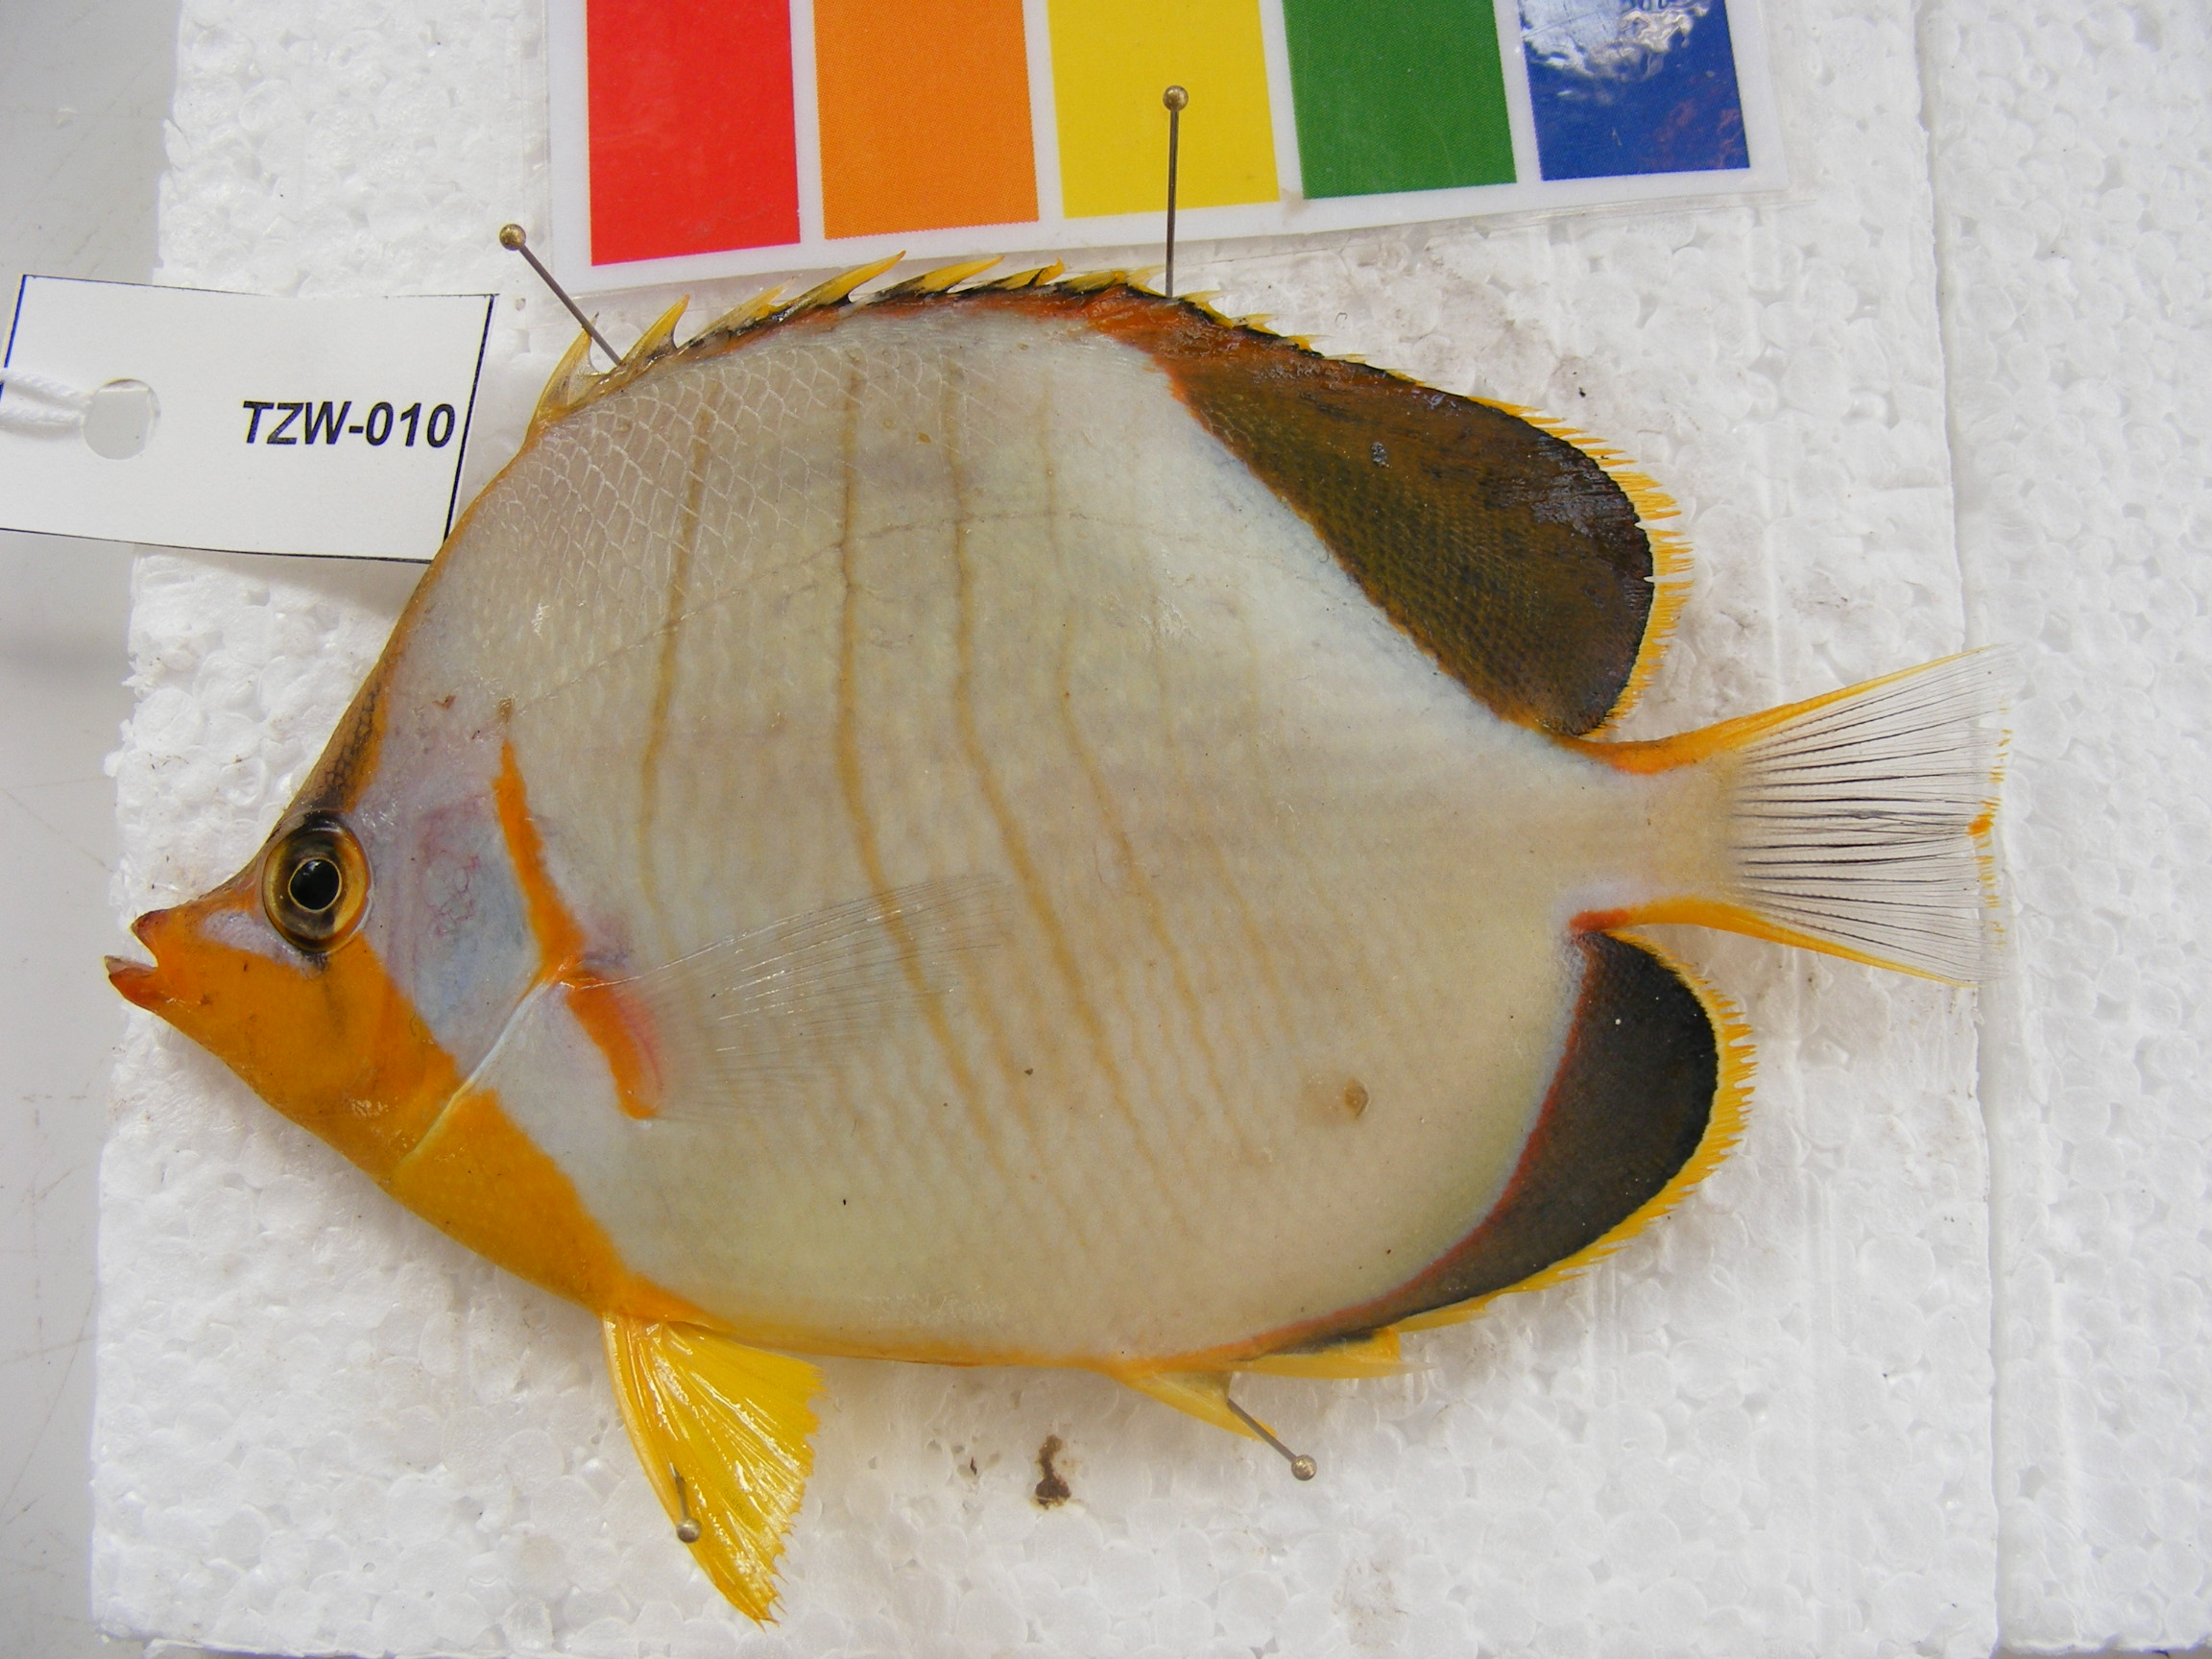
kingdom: Animalia
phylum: Chordata
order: Perciformes
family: Chaetodontidae
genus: Chaetodon
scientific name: Chaetodon xanthocephalus
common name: Yellowhead butterflyfish
